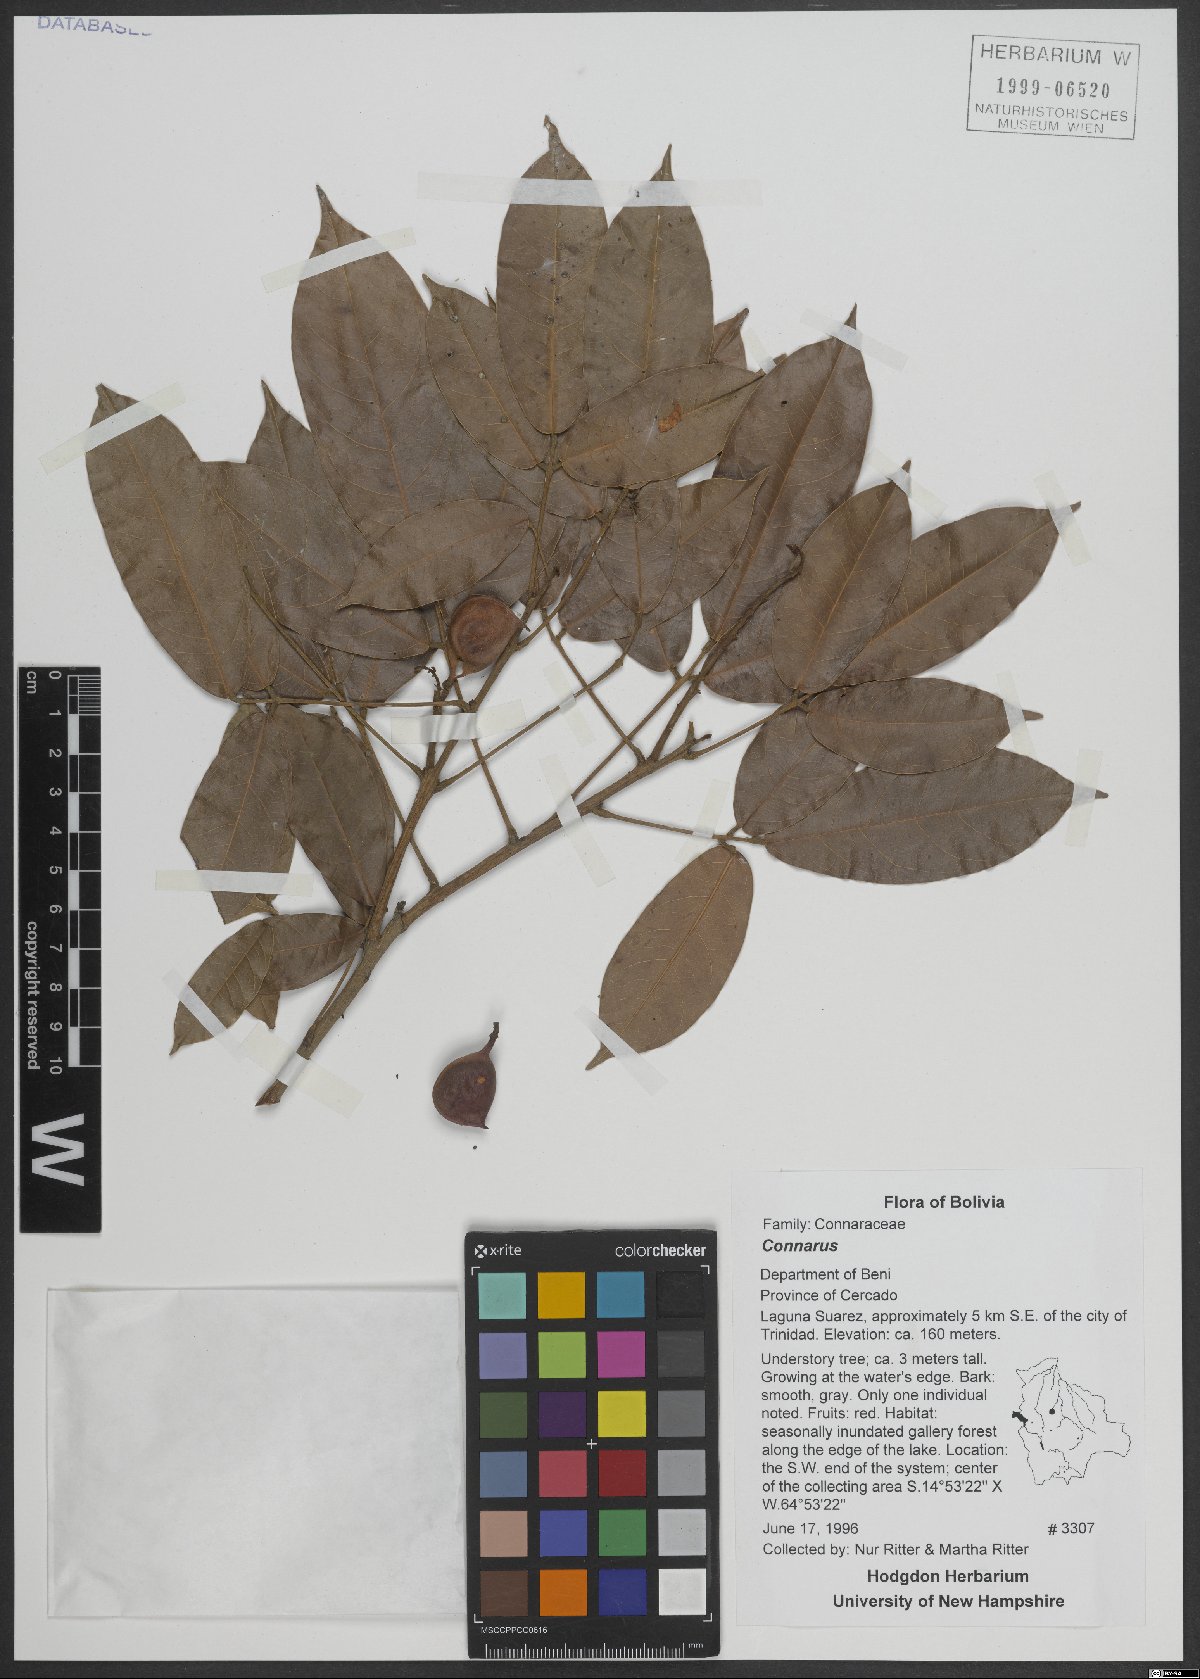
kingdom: Plantae
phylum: Tracheophyta
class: Magnoliopsida
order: Oxalidales
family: Connaraceae
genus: Connarus
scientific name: Connarus venezuelanus
